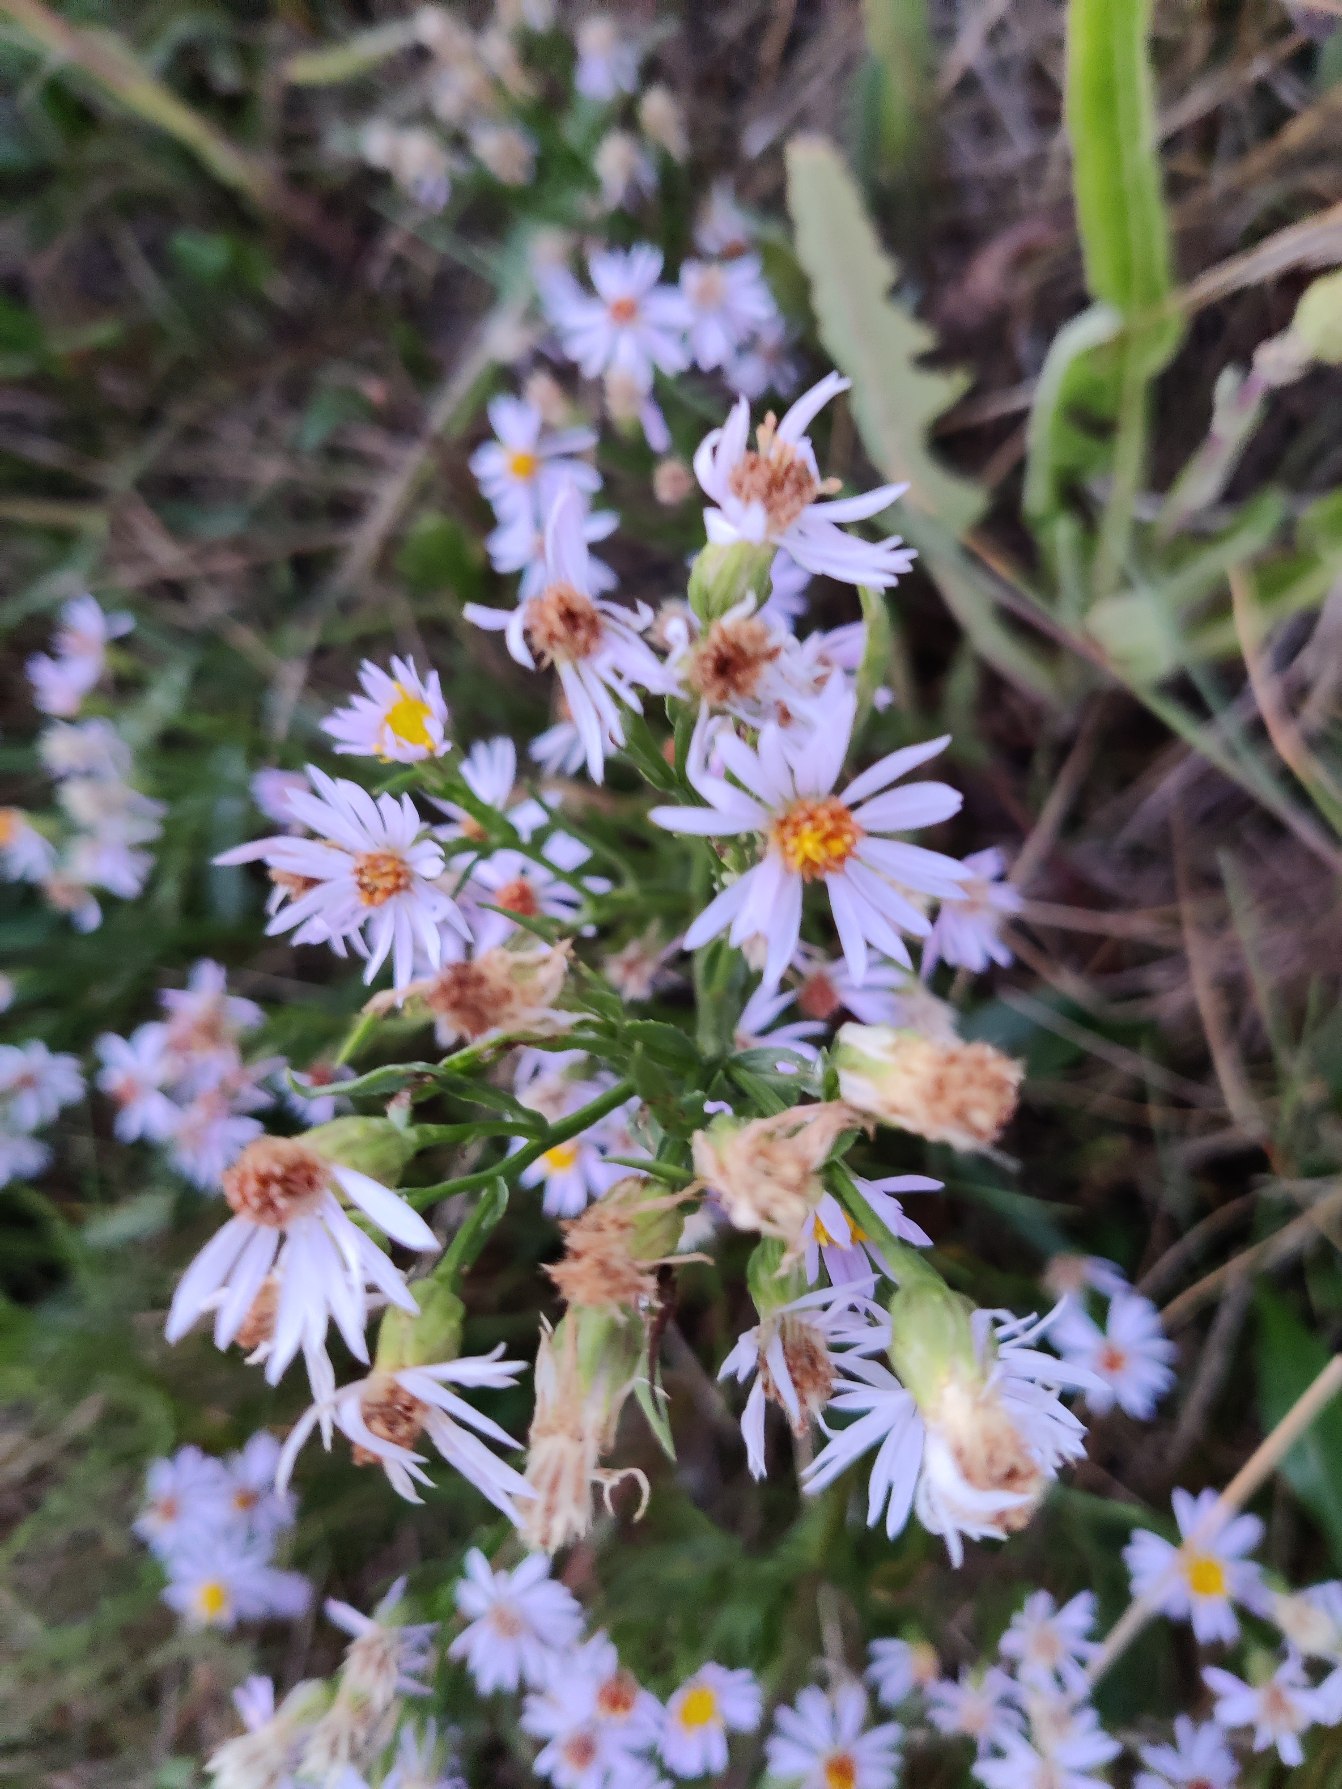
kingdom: Plantae
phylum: Tracheophyta
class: Magnoliopsida
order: Asterales
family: Asteraceae
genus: Tripolium
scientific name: Tripolium pannonicum
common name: Strandasters
